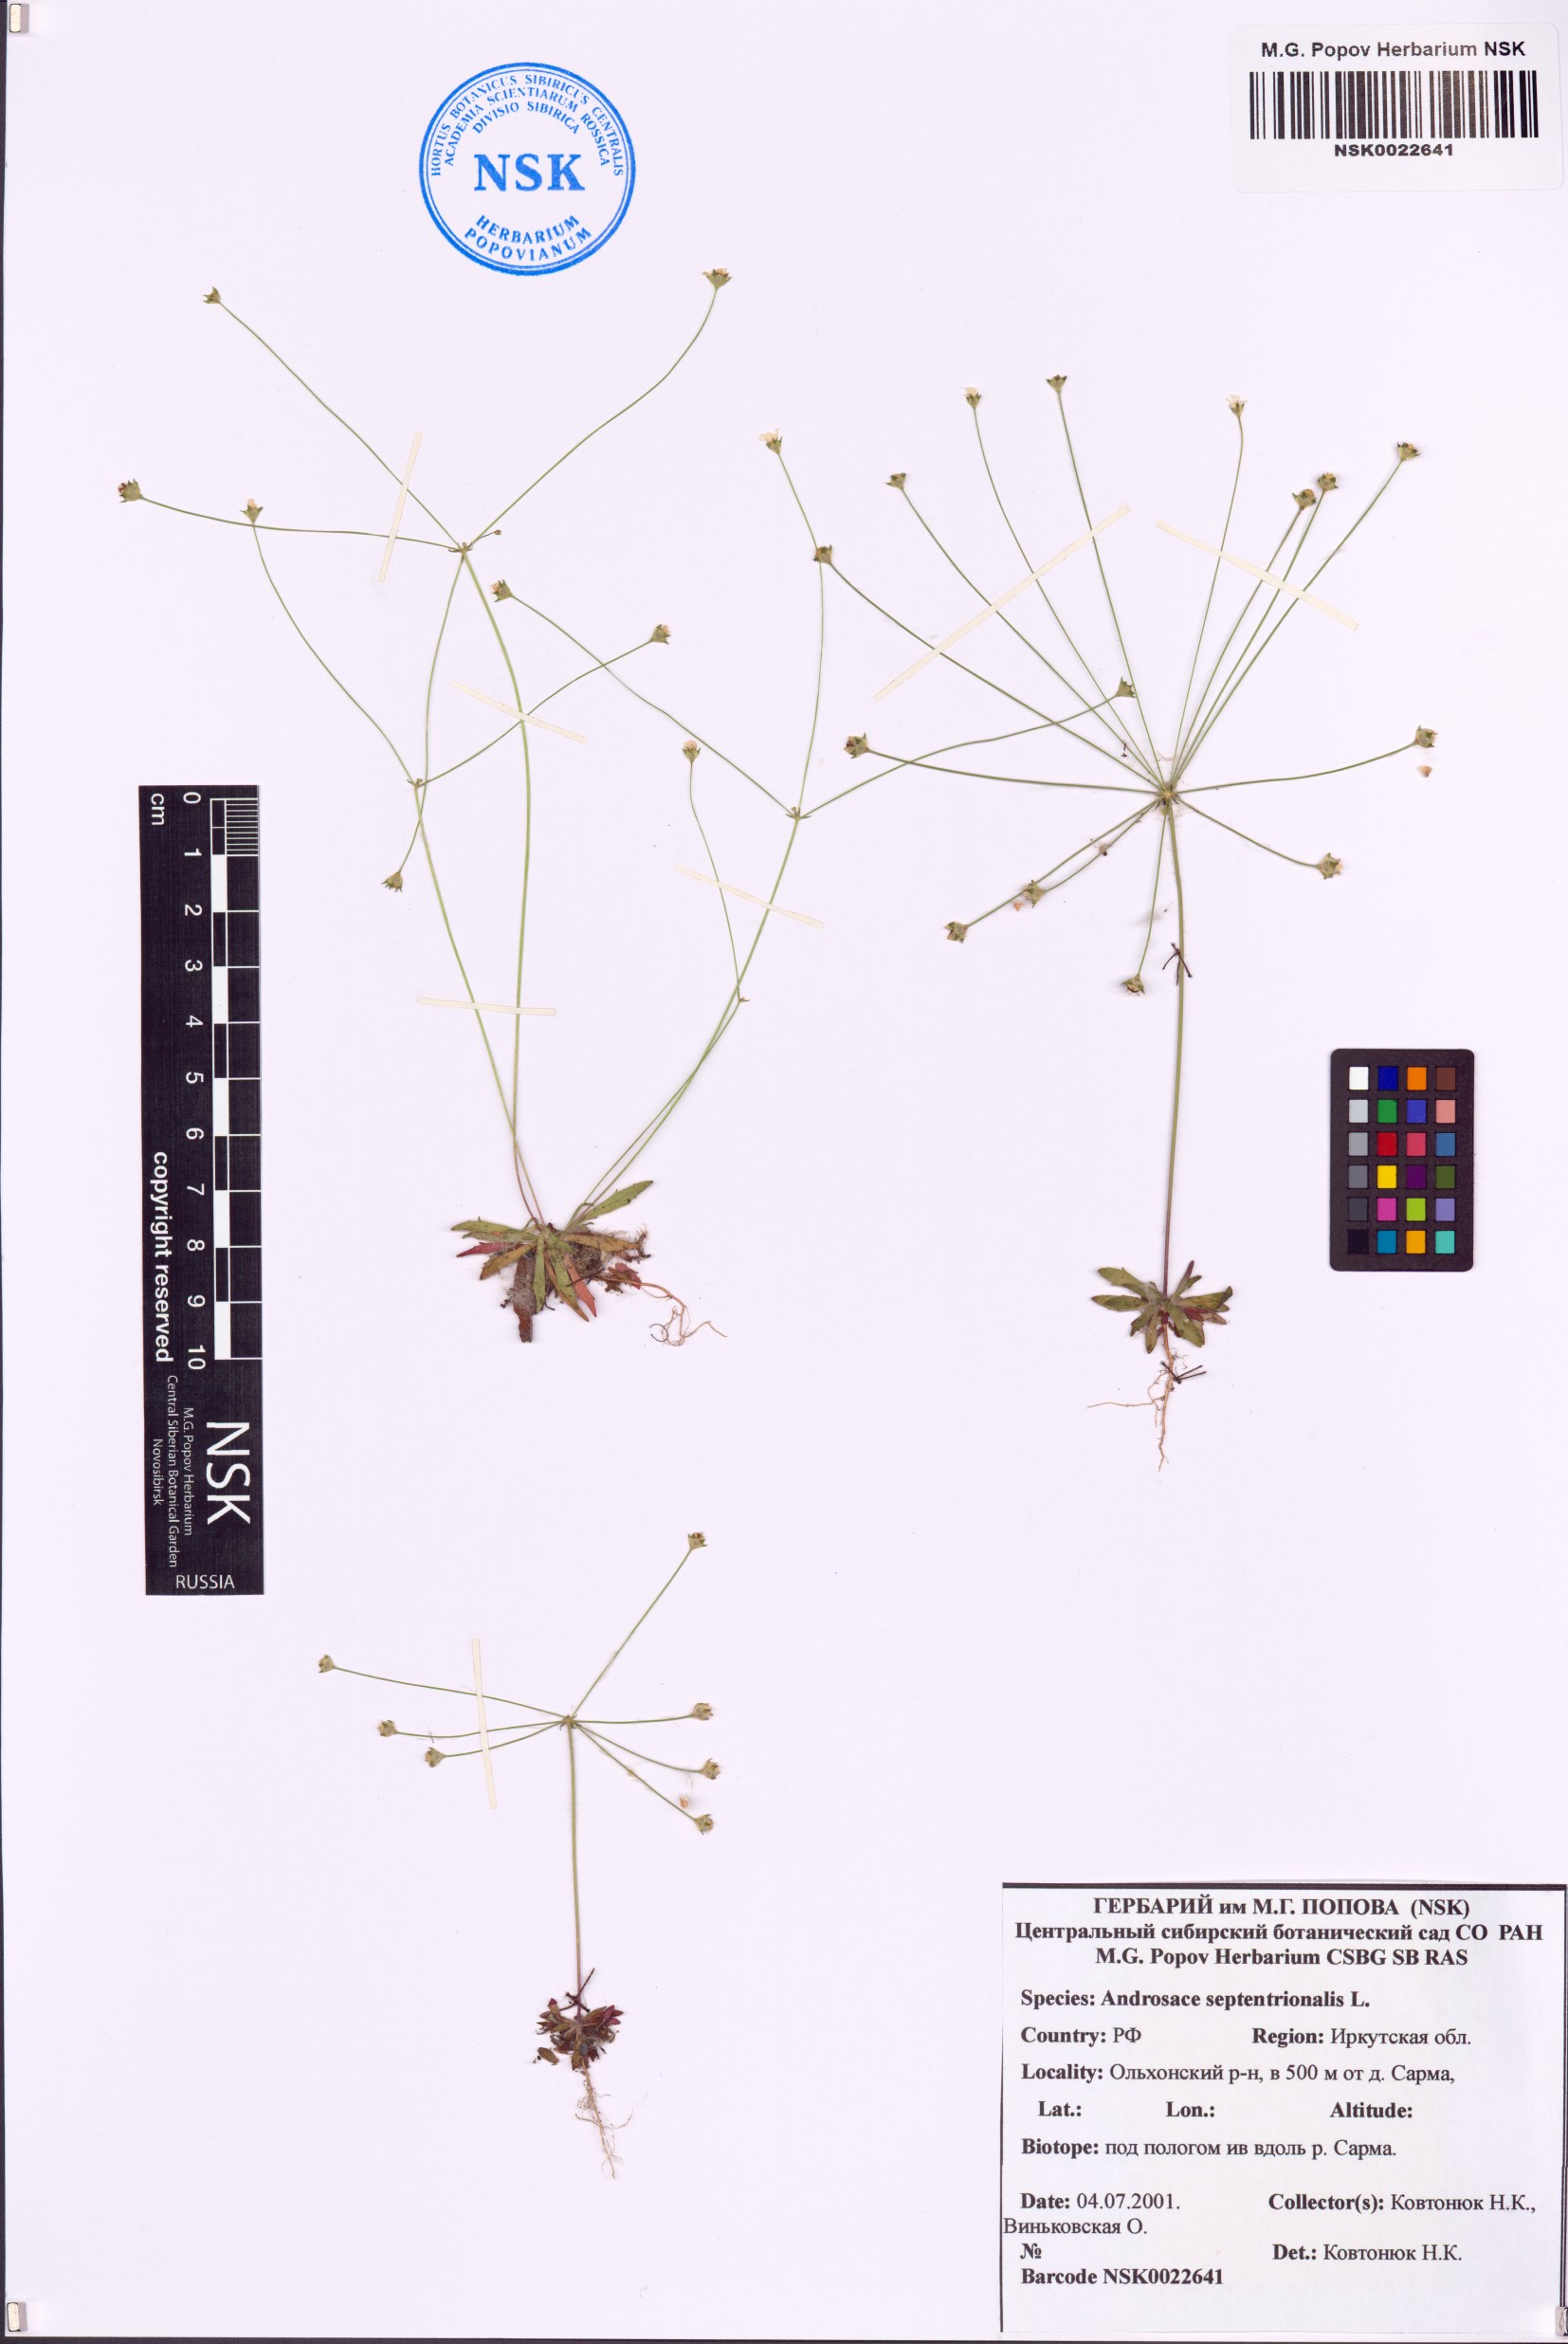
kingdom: Plantae
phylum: Tracheophyta
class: Magnoliopsida
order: Ericales
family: Primulaceae
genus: Androsace
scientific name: Androsace septentrionalis
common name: Hairy northern fairy-candelabra
